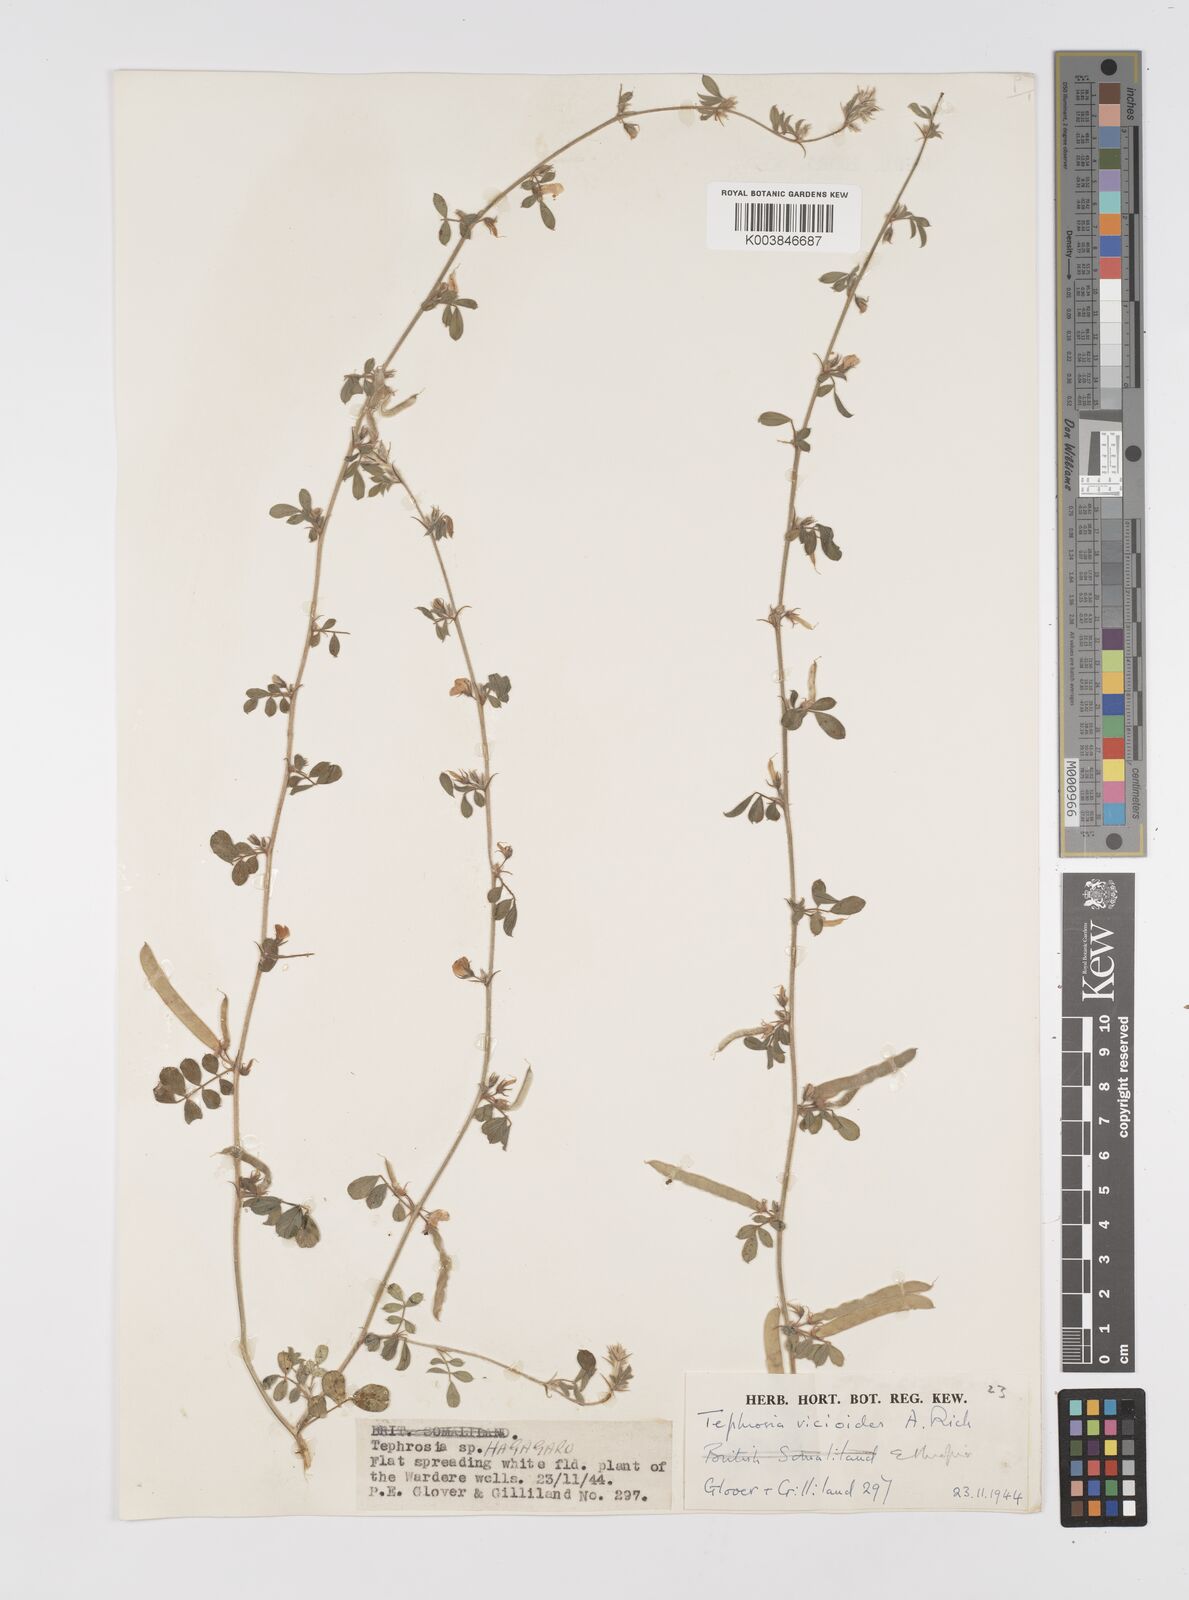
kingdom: Plantae
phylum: Tracheophyta
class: Magnoliopsida
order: Fabales
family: Fabaceae
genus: Tephrosia
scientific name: Tephrosia uniflora
